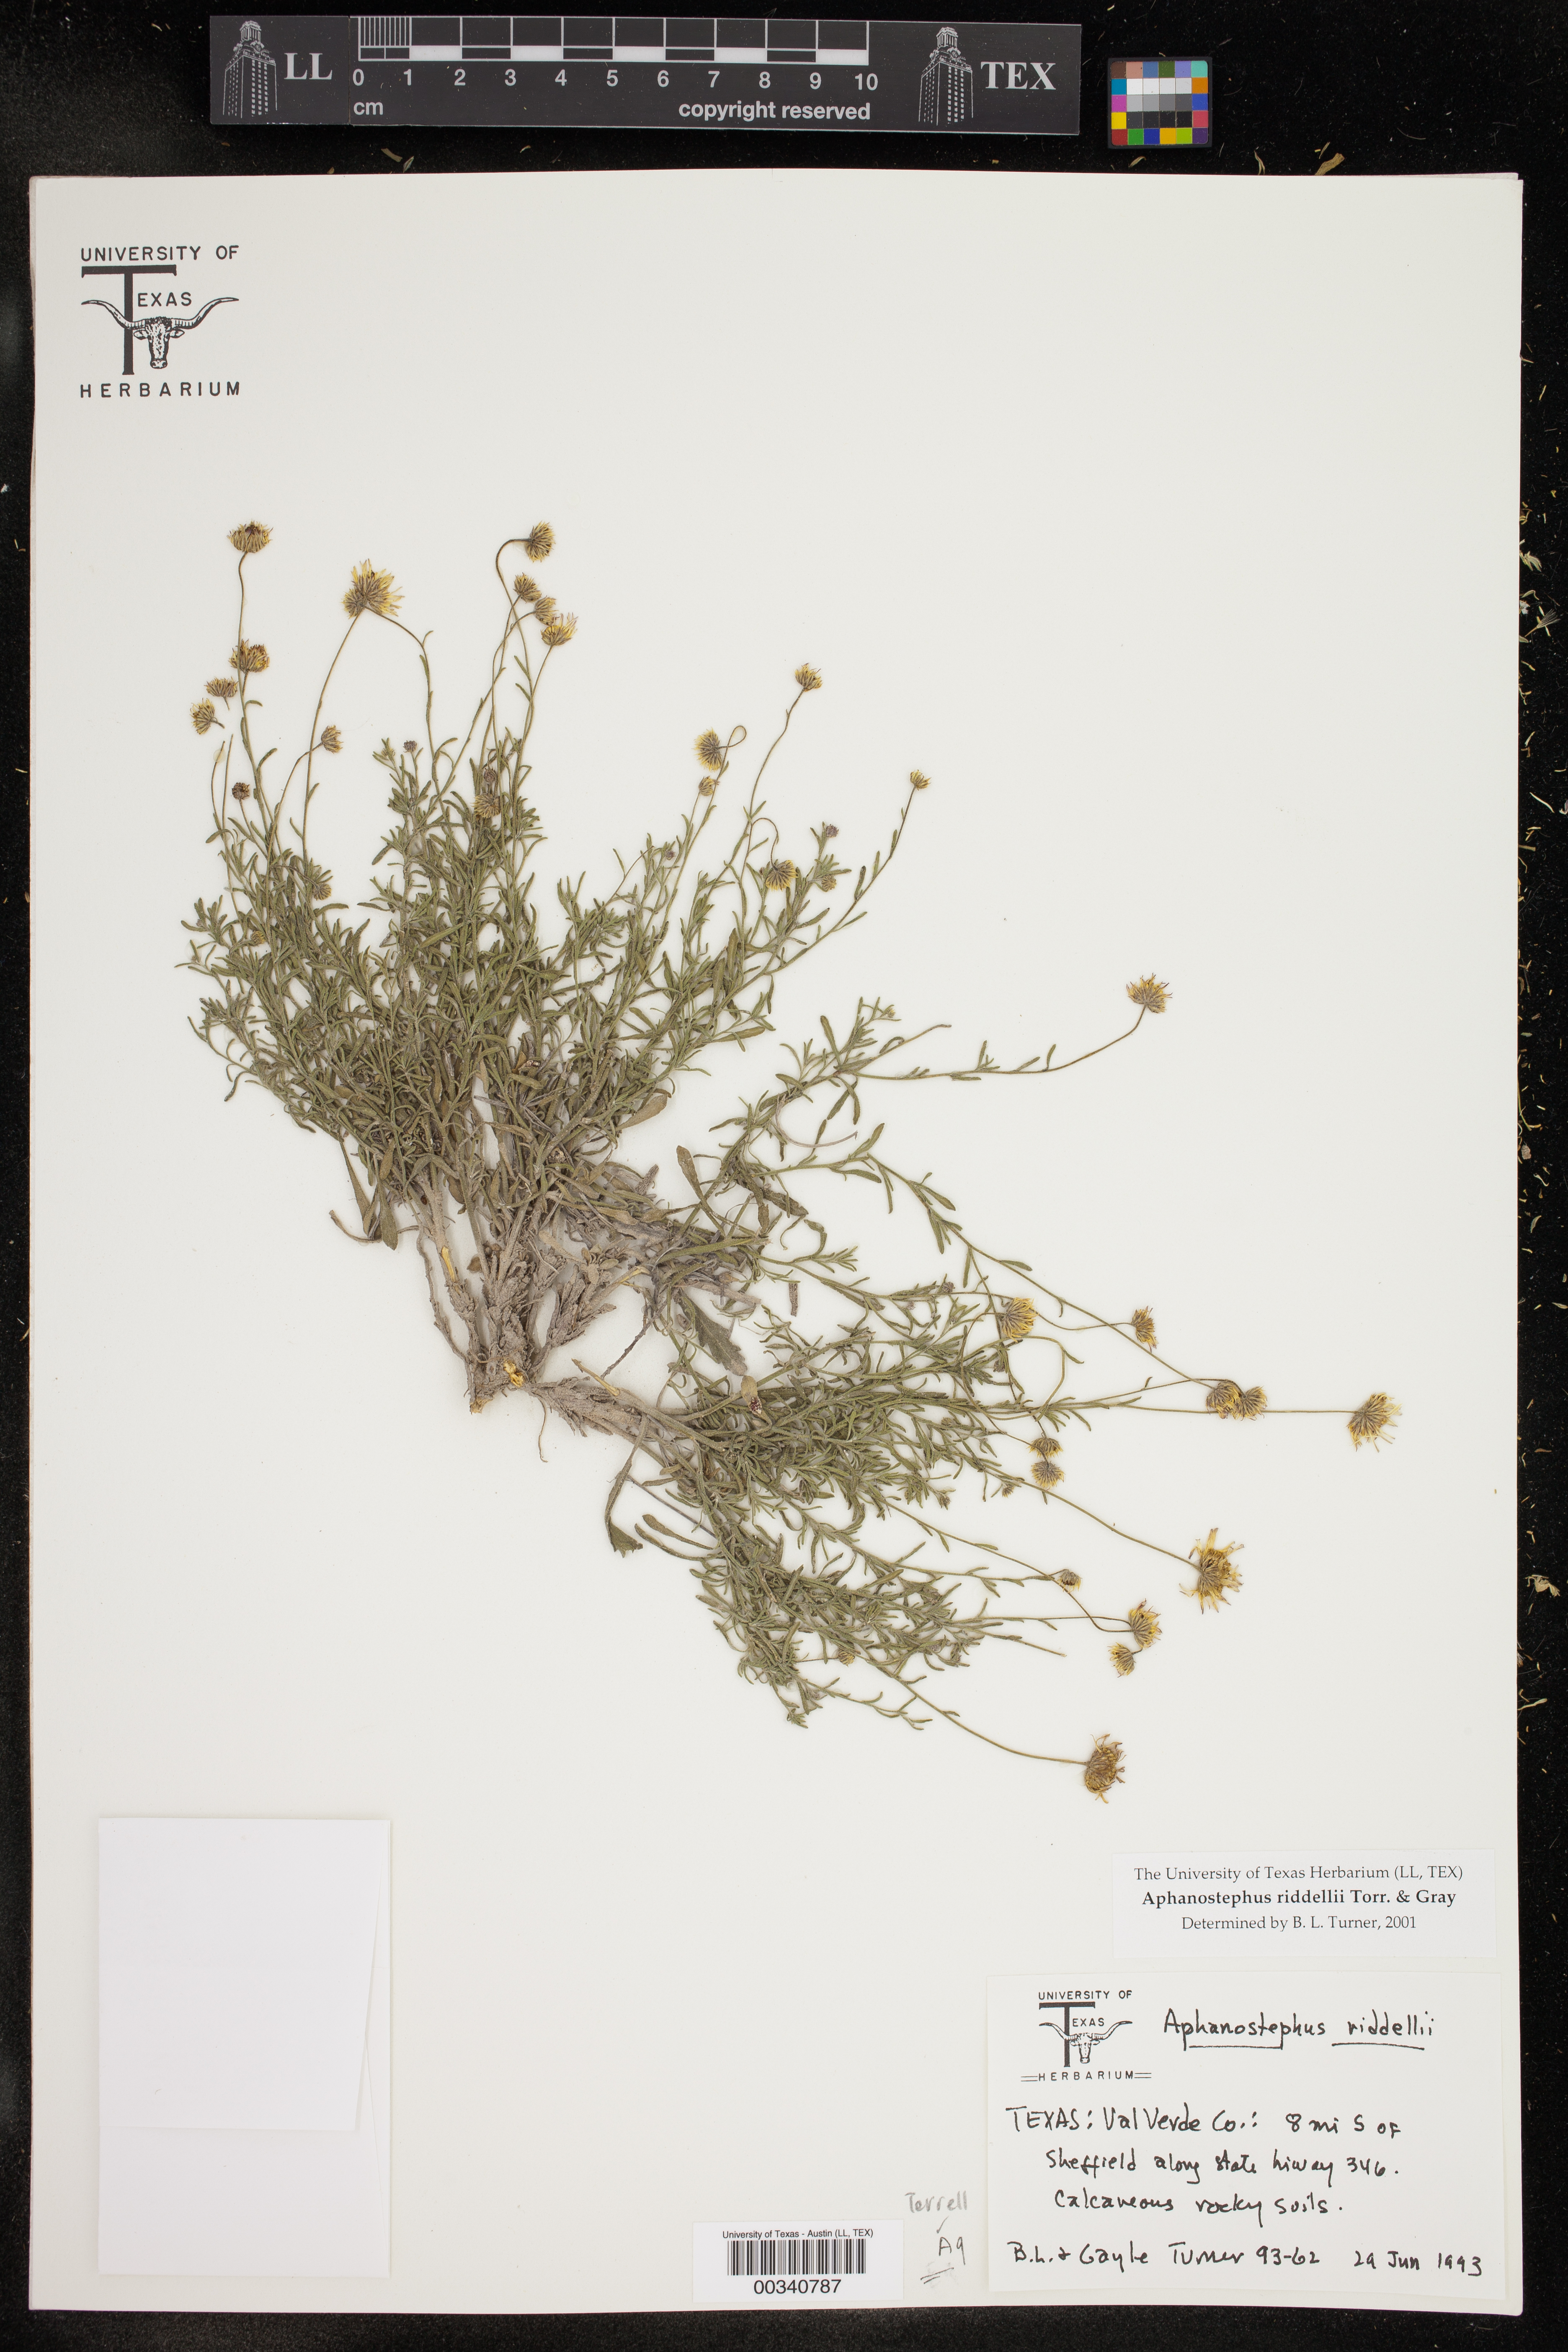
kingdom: Plantae
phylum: Tracheophyta
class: Magnoliopsida
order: Asterales
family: Asteraceae
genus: Aphanostephus
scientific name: Aphanostephus riddellii
